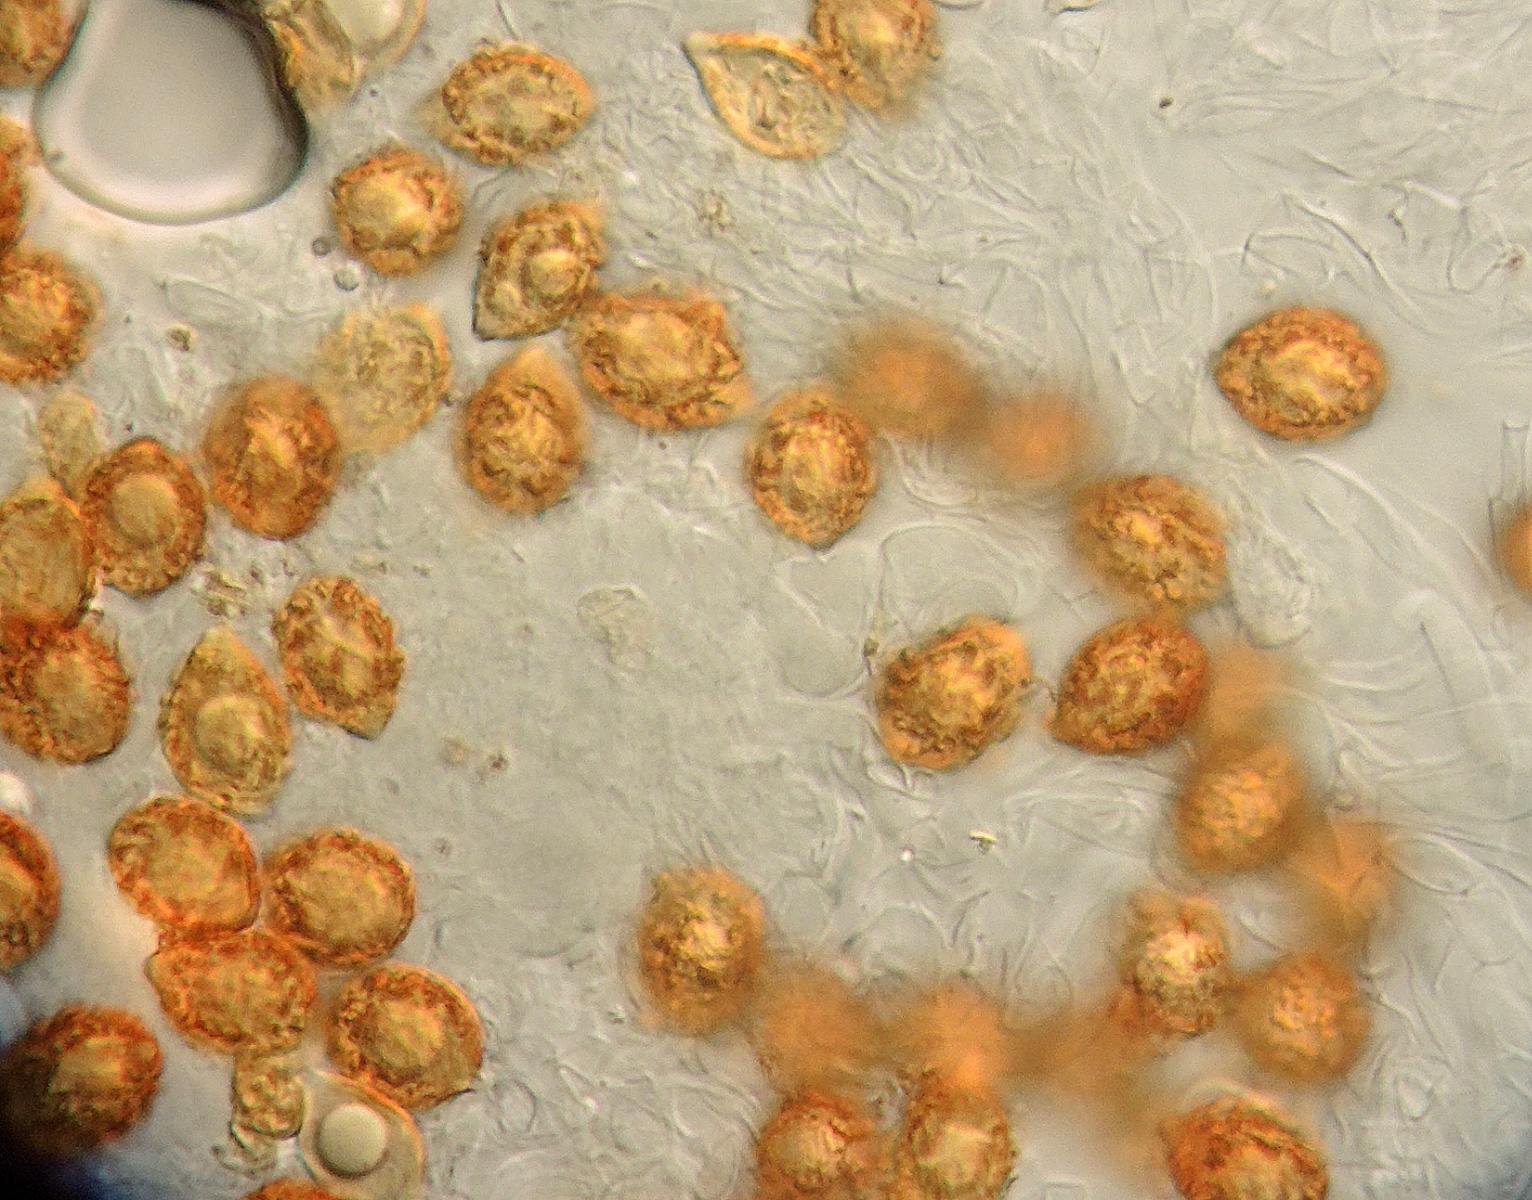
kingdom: Fungi
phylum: Basidiomycota
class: Agaricomycetes
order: Agaricales
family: Hymenogastraceae
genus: Hymenogaster
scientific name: Hymenogaster
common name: knoldtrøffel
